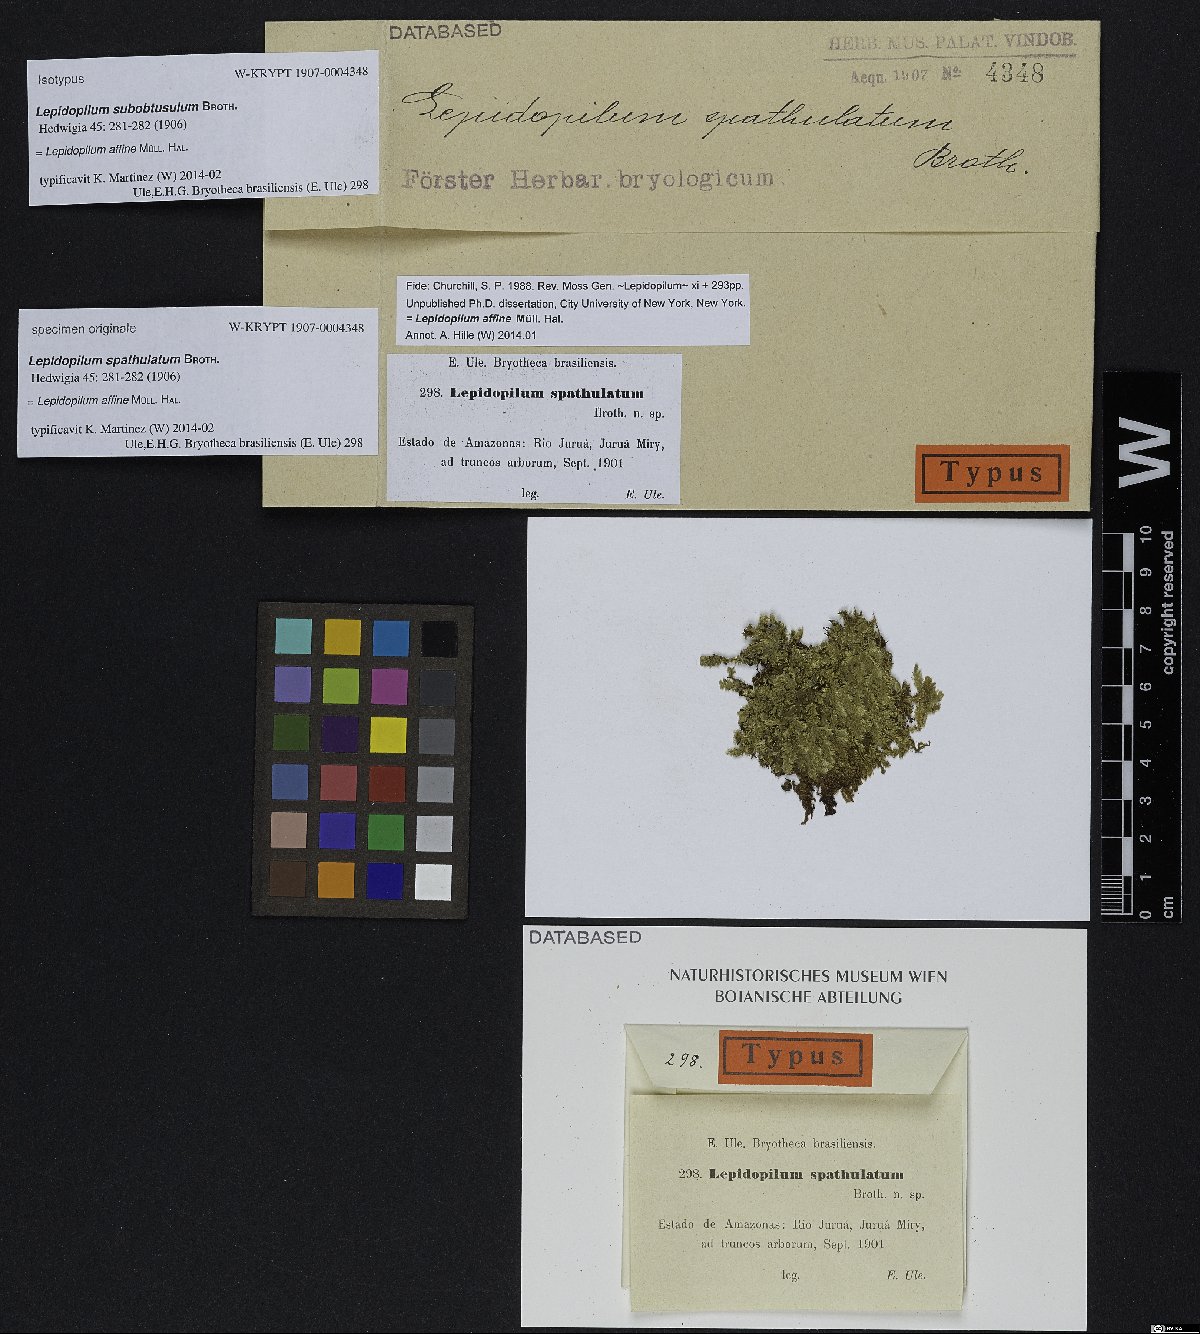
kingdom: Plantae
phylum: Bryophyta
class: Bryopsida
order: Hookeriales
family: Pilotrichaceae
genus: Lepidopilum
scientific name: Lepidopilum affine
